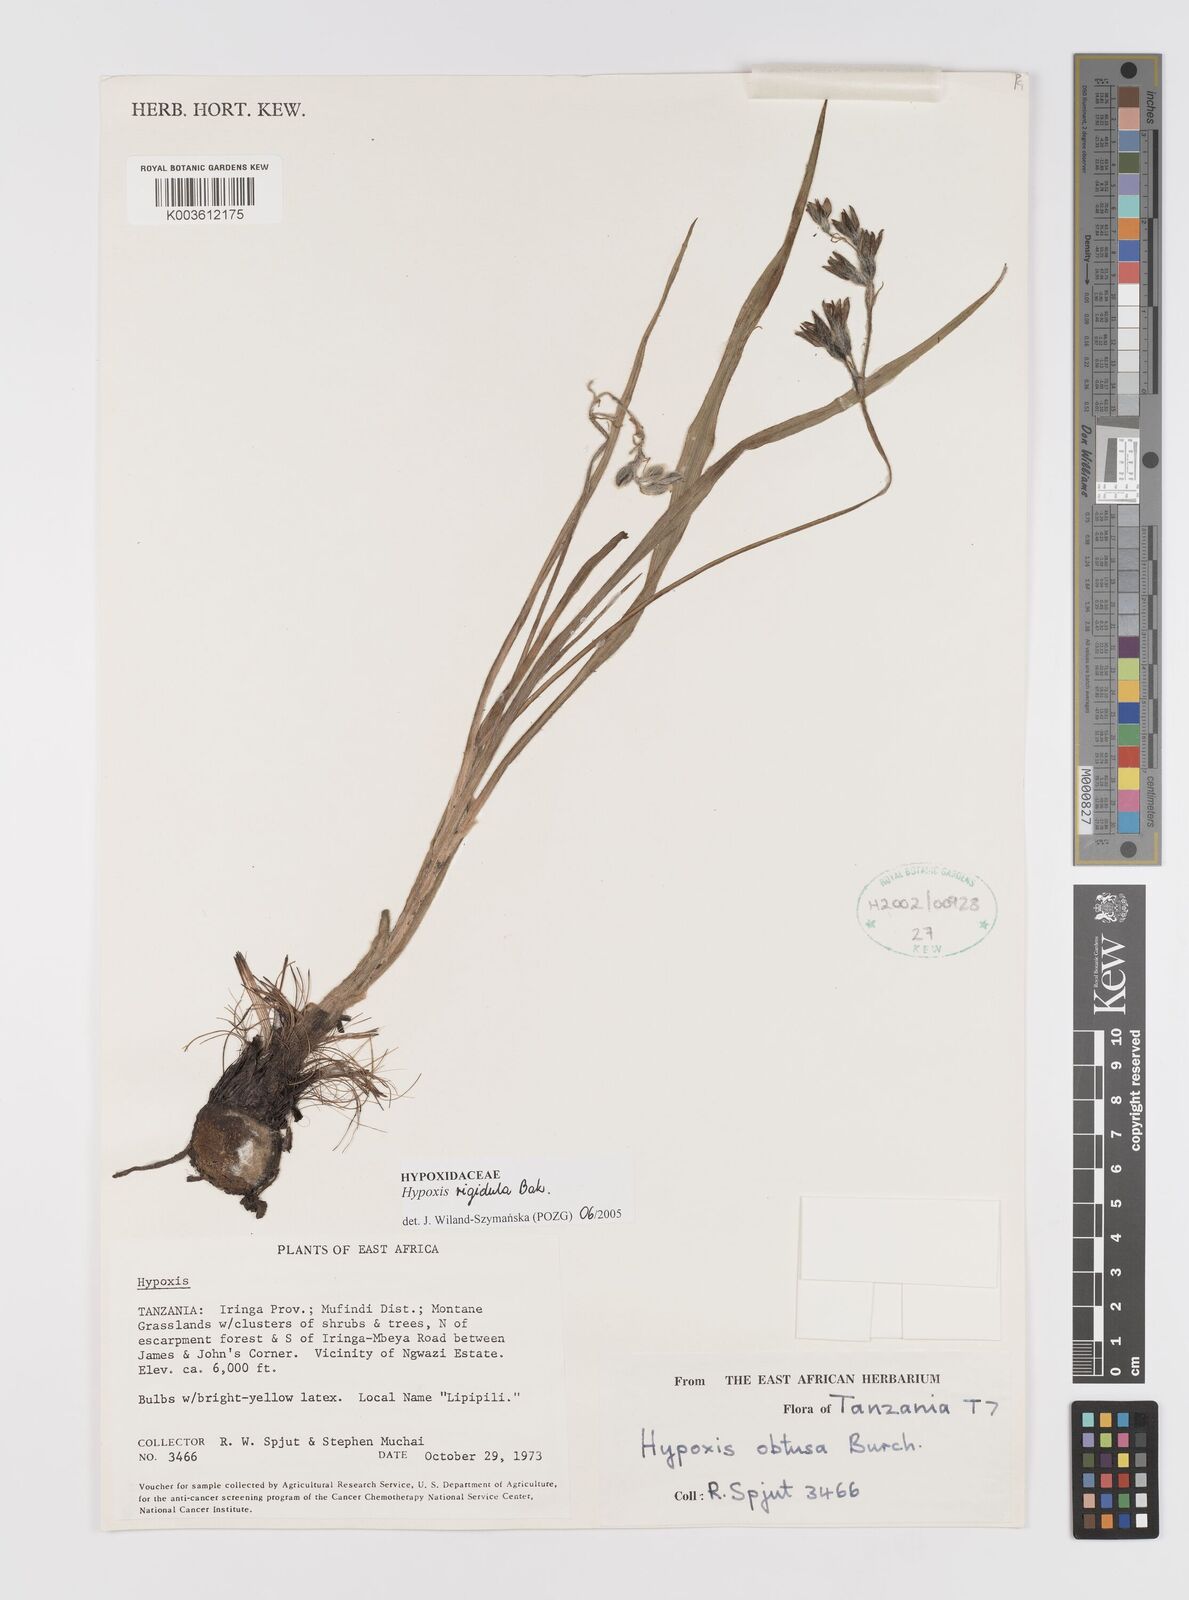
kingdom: Plantae
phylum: Tracheophyta
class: Liliopsida
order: Asparagales
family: Hypoxidaceae
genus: Hypoxis
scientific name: Hypoxis rigidula
